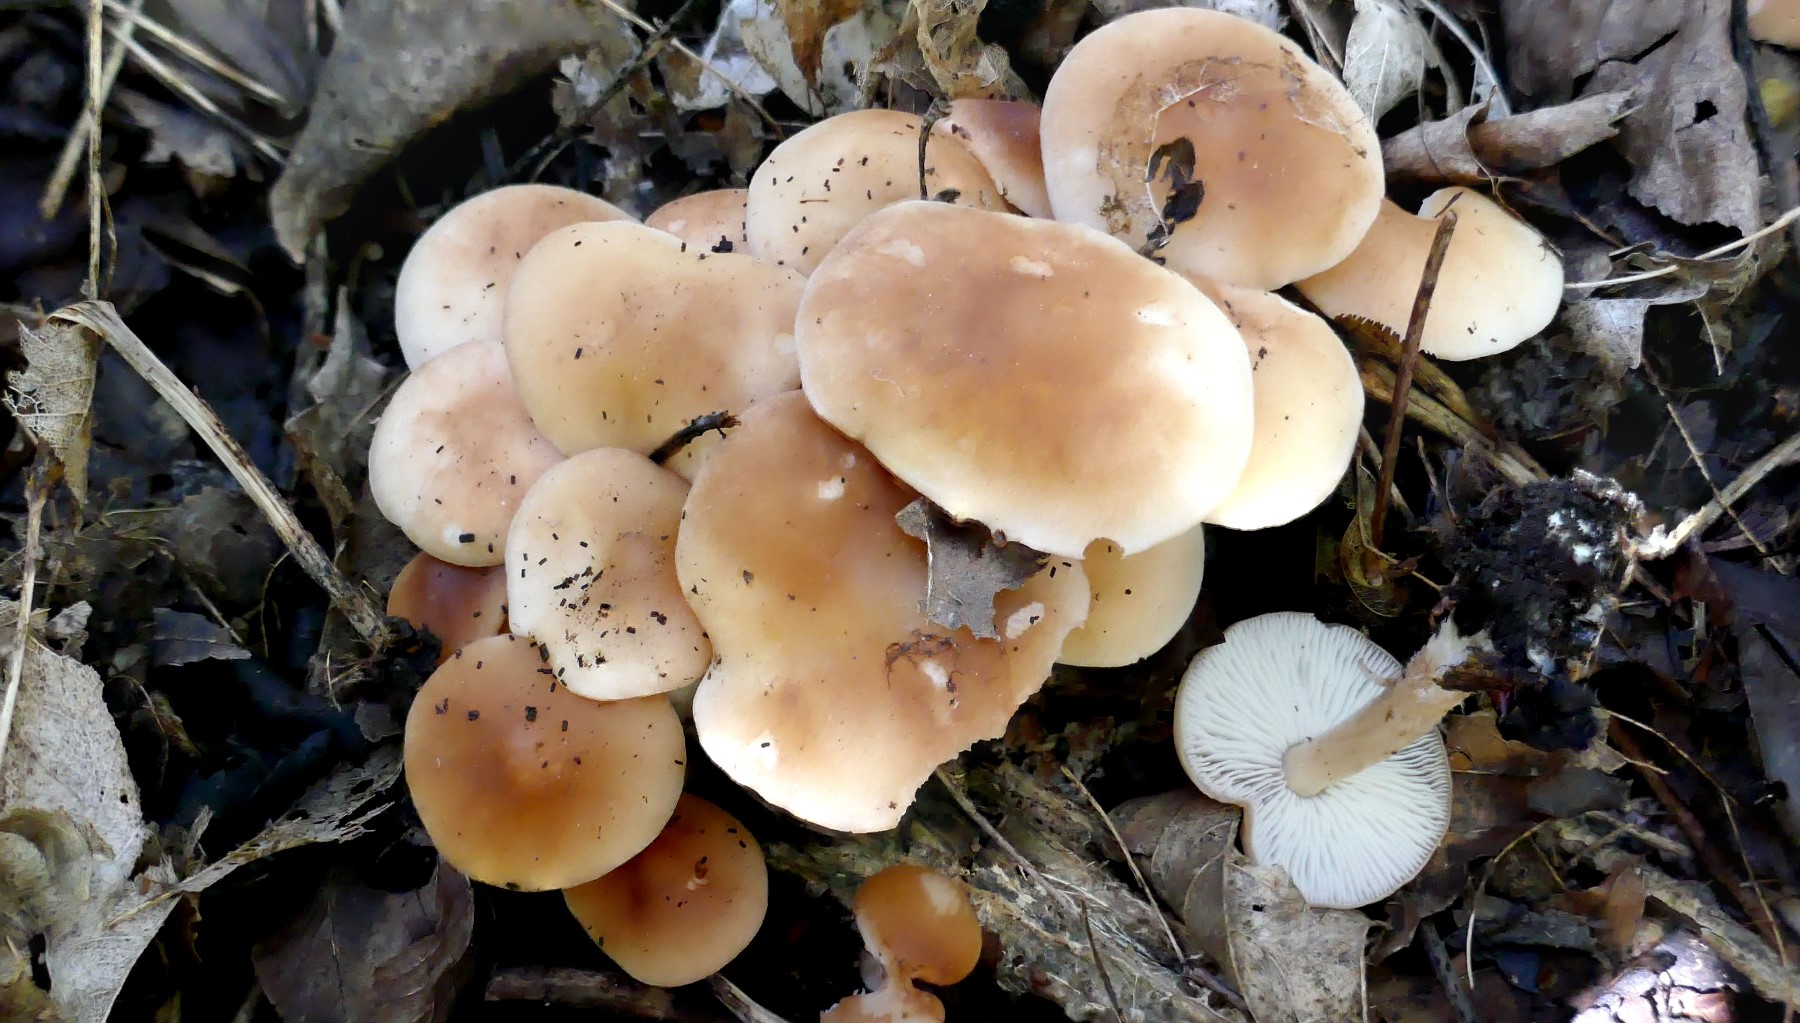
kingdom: Fungi
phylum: Basidiomycota
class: Agaricomycetes
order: Agaricales
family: Omphalotaceae
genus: Gymnopus
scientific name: Gymnopus hariolorum
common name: hvidkåls-fladhat
